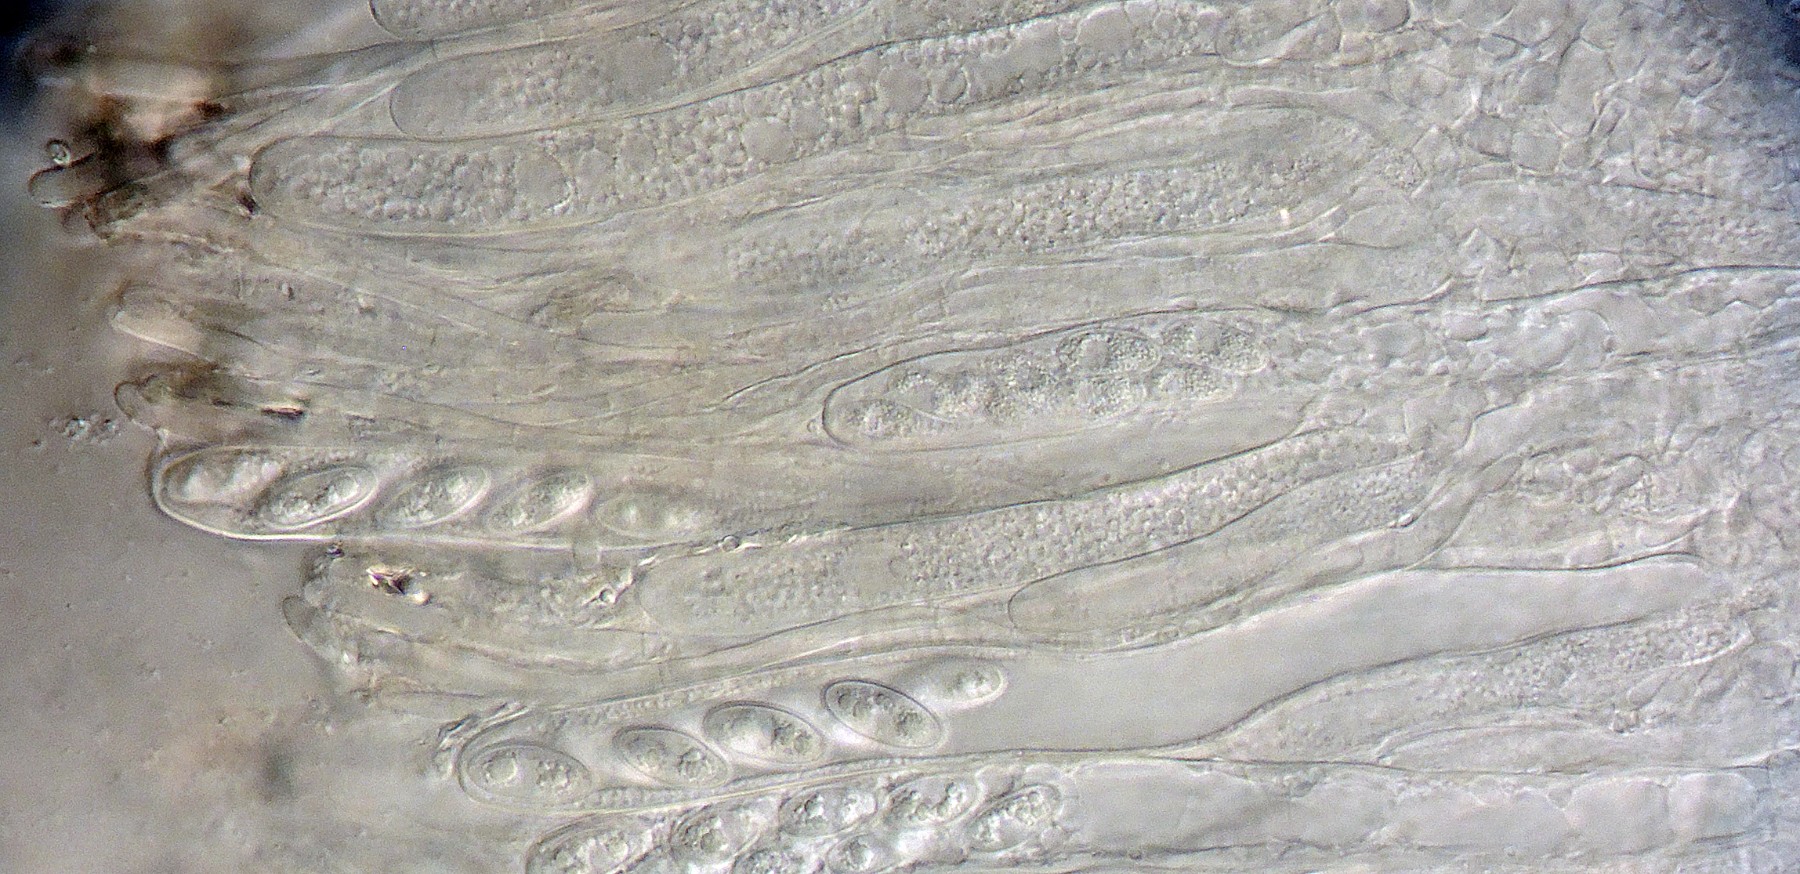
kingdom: Fungi
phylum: Ascomycota
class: Leotiomycetes
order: Helotiales
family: Sclerotiniaceae
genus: Clarireedia
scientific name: Clarireedia
